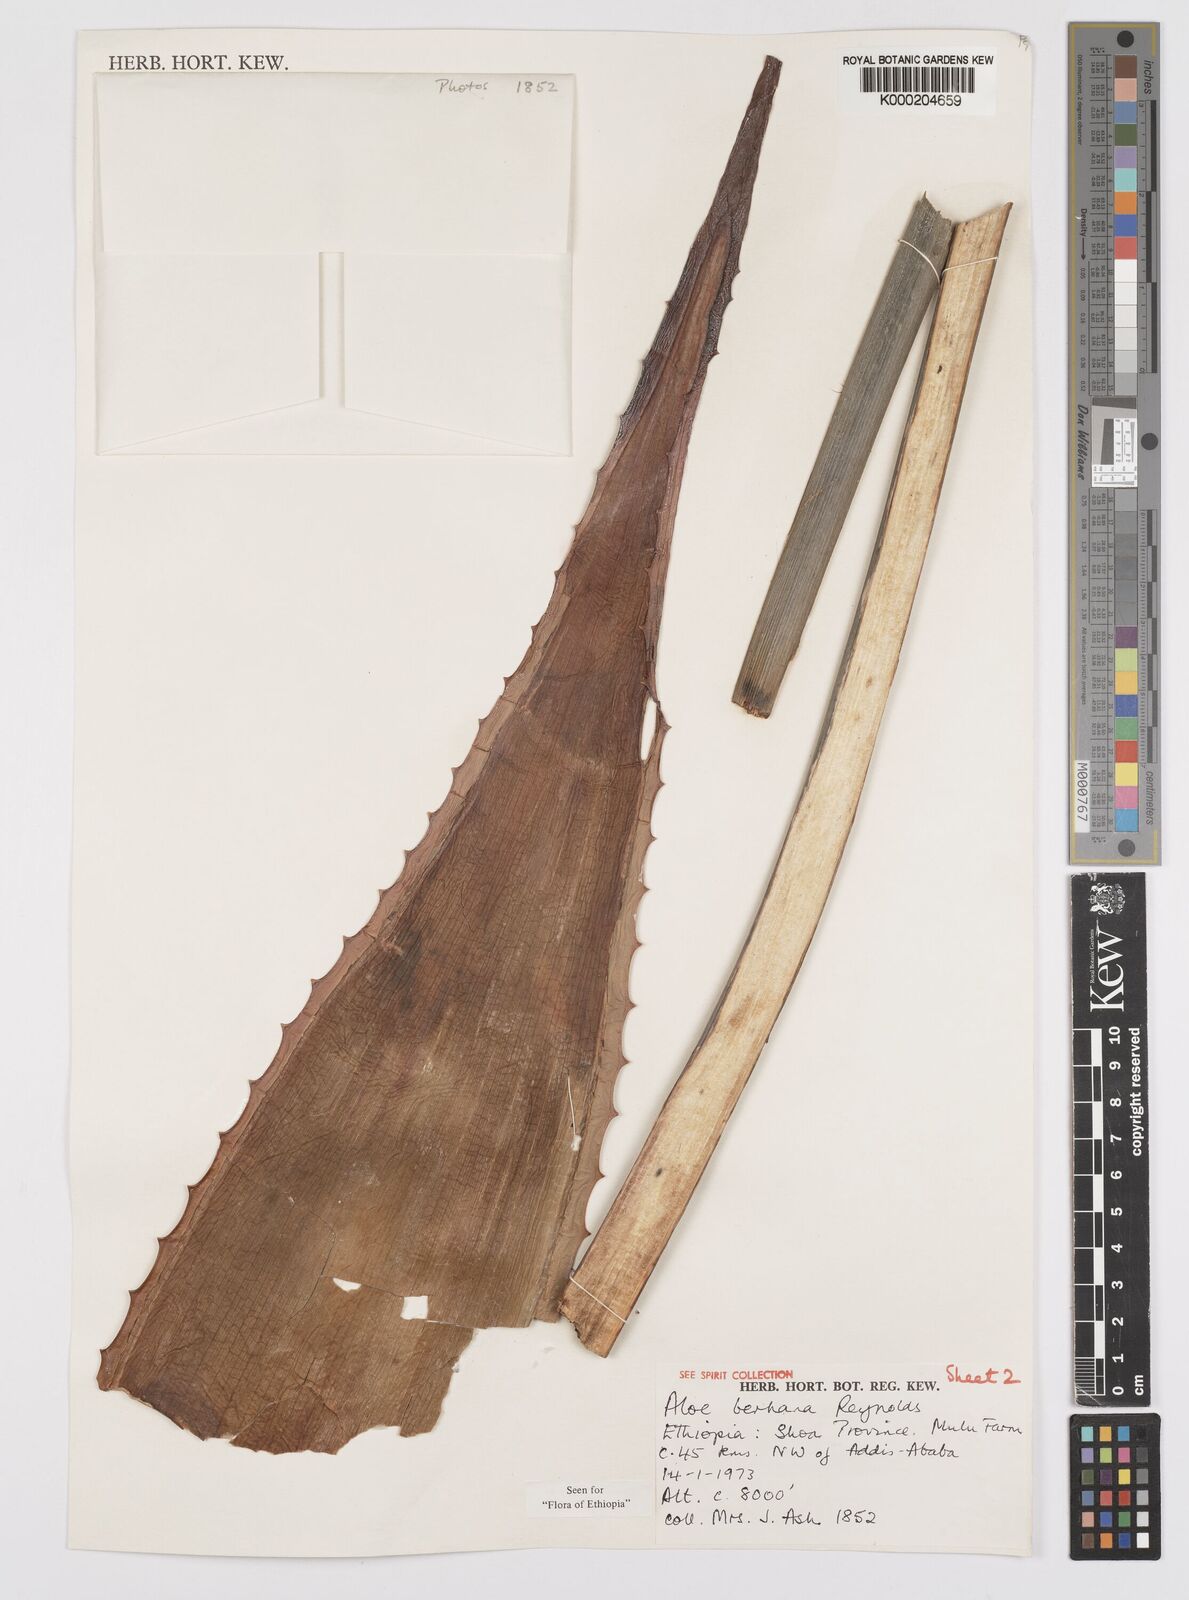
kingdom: Plantae
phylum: Tracheophyta
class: Liliopsida
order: Asparagales
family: Asphodelaceae
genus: Aloe
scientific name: Aloe debrana
